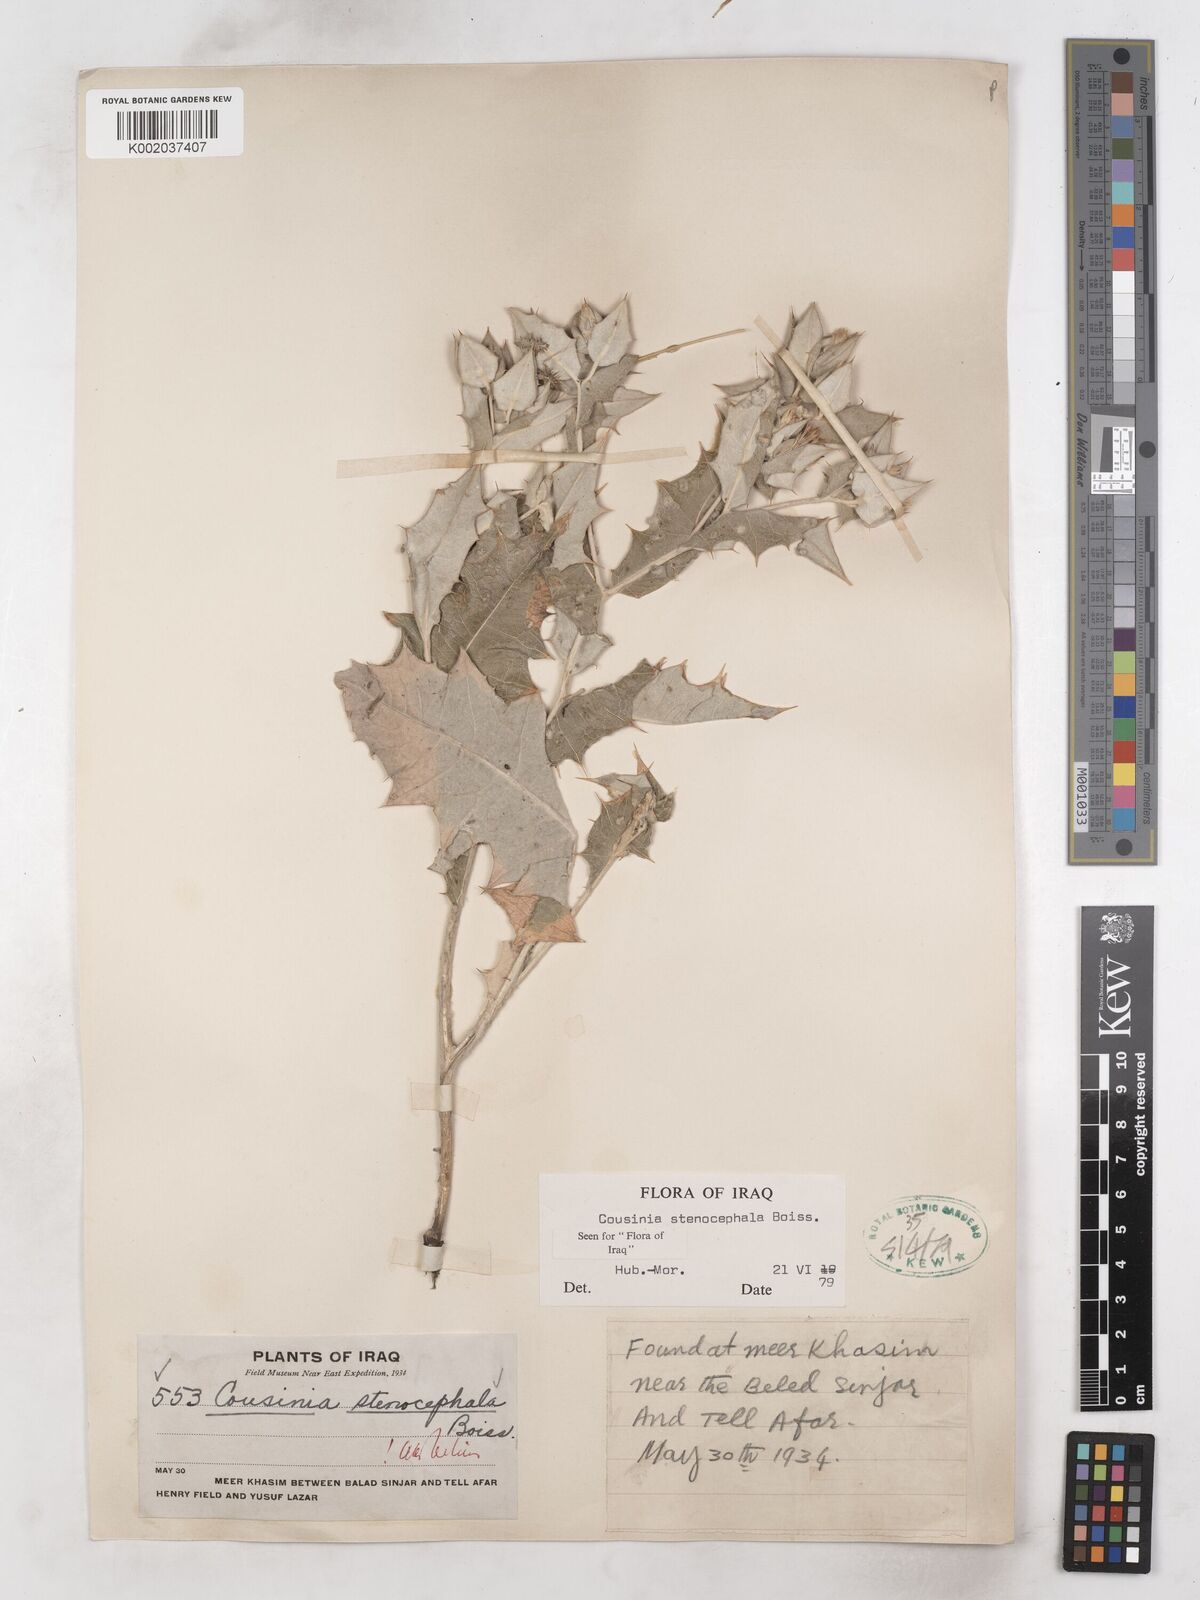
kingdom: Plantae
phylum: Tracheophyta
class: Magnoliopsida
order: Asterales
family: Asteraceae
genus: Cousinia
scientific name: Cousinia stenocephala
